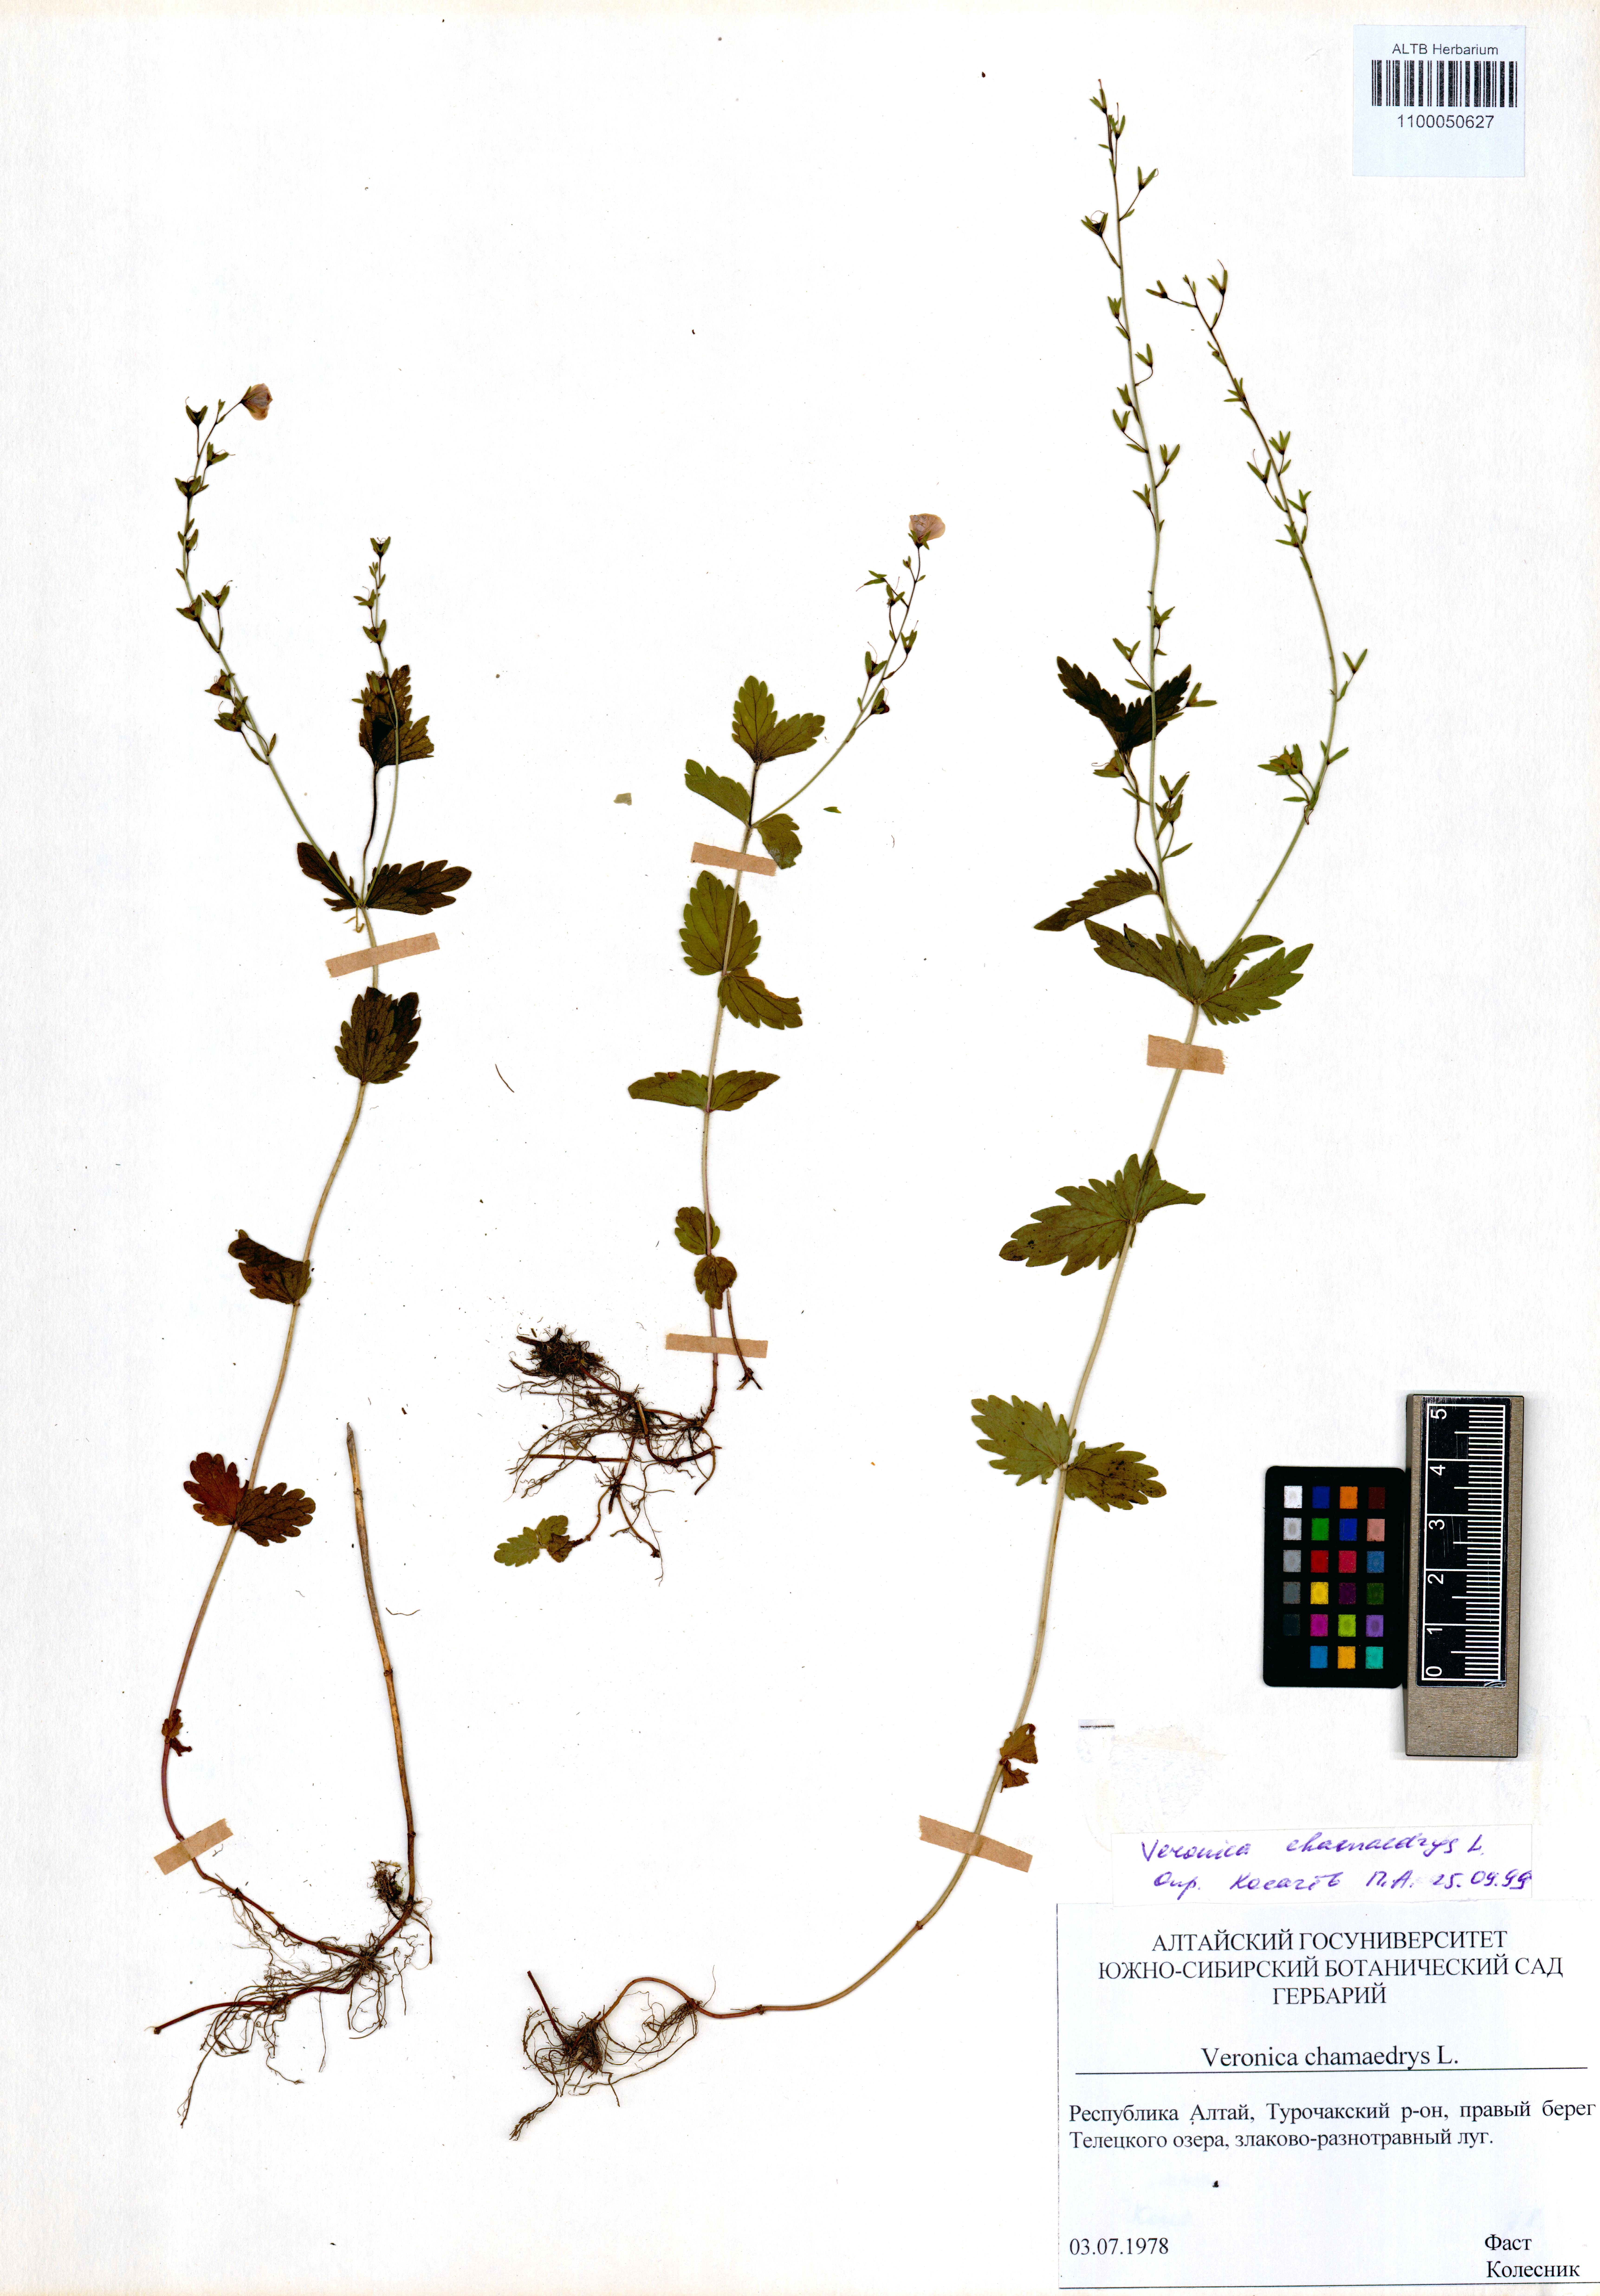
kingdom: Plantae
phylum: Tracheophyta
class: Magnoliopsida
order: Lamiales
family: Plantaginaceae
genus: Veronica
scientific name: Veronica chamaedrys
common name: Germander speedwell
